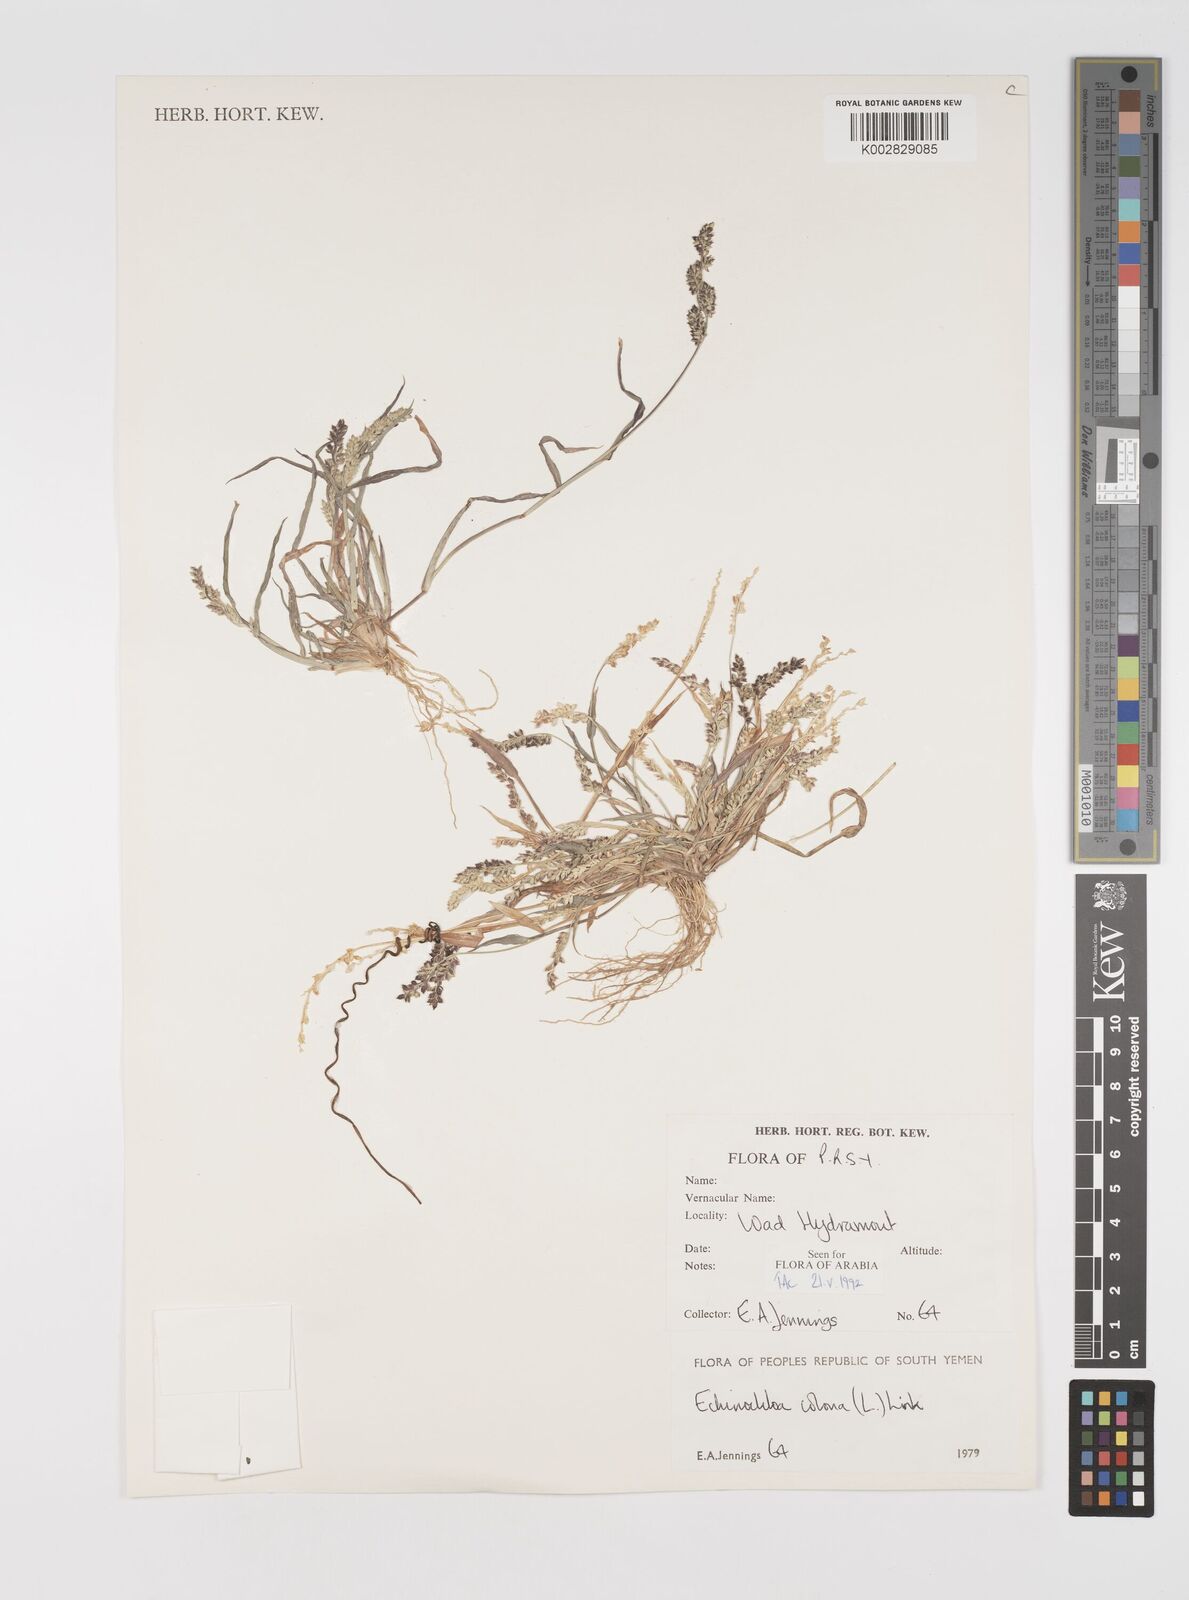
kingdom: Plantae
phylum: Tracheophyta
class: Liliopsida
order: Poales
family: Poaceae
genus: Echinochloa
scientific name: Echinochloa colonum
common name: Jungle rice
